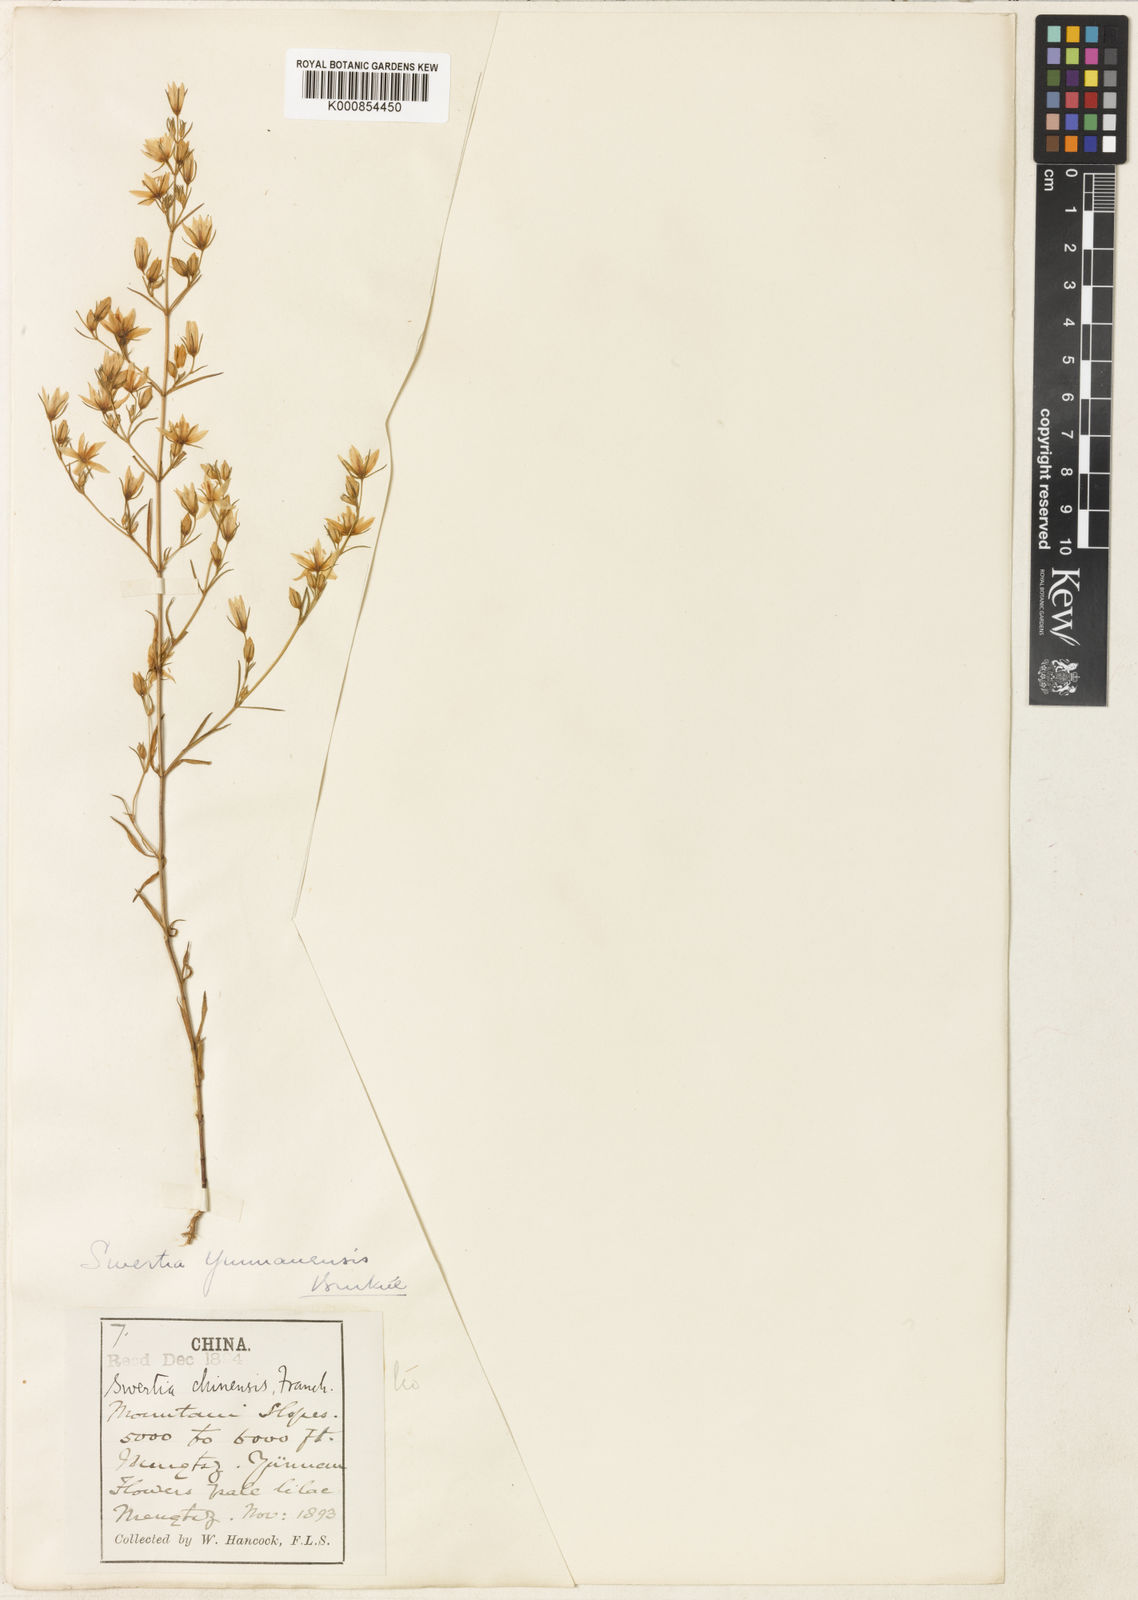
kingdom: Plantae
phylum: Tracheophyta
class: Magnoliopsida
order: Gentianales
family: Gentianaceae
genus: Swertia
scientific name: Swertia yunnanensis
